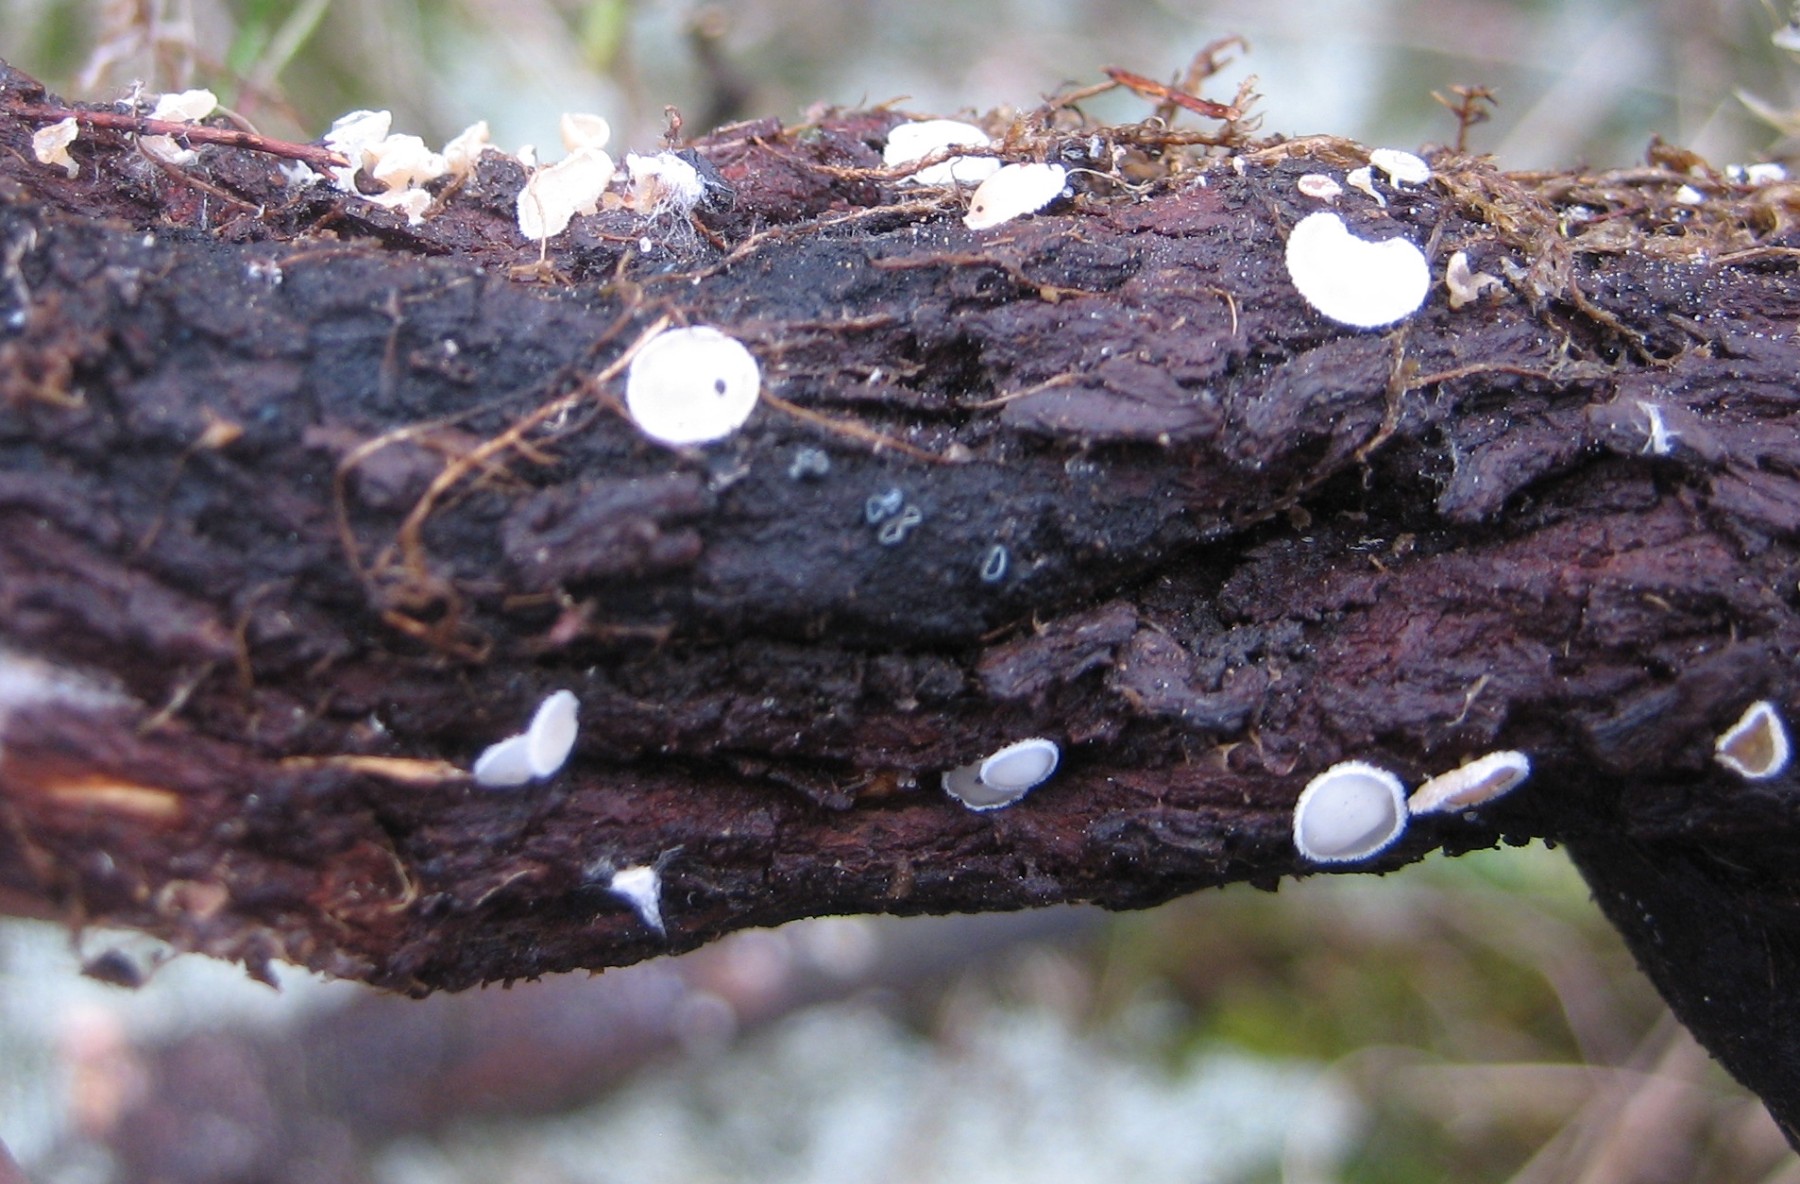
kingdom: Fungi
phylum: Ascomycota
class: Leotiomycetes
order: Helotiales
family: Lachnaceae
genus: Lachnum
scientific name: Lachnum
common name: frynseskive
